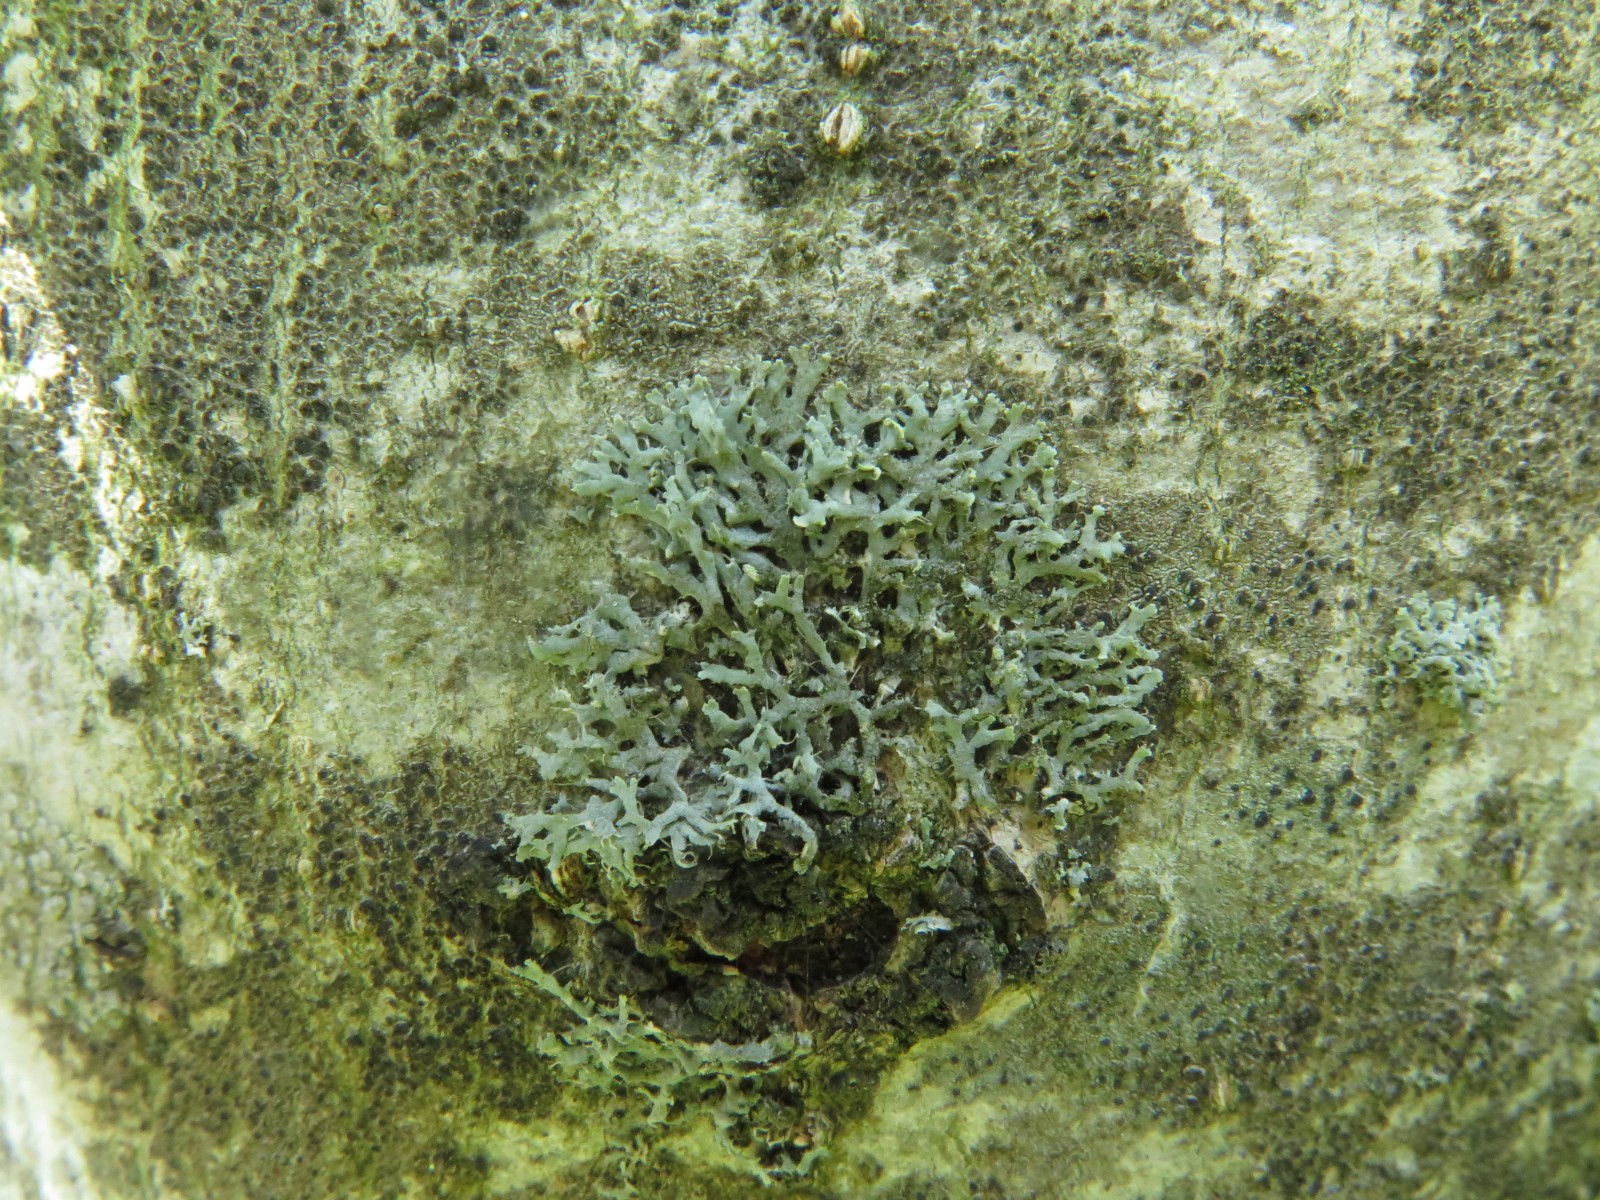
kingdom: Fungi
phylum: Ascomycota
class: Lecanoromycetes
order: Caliciales
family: Physciaceae
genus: Physcia
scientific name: Physcia tenella
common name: spæd rosetlav
